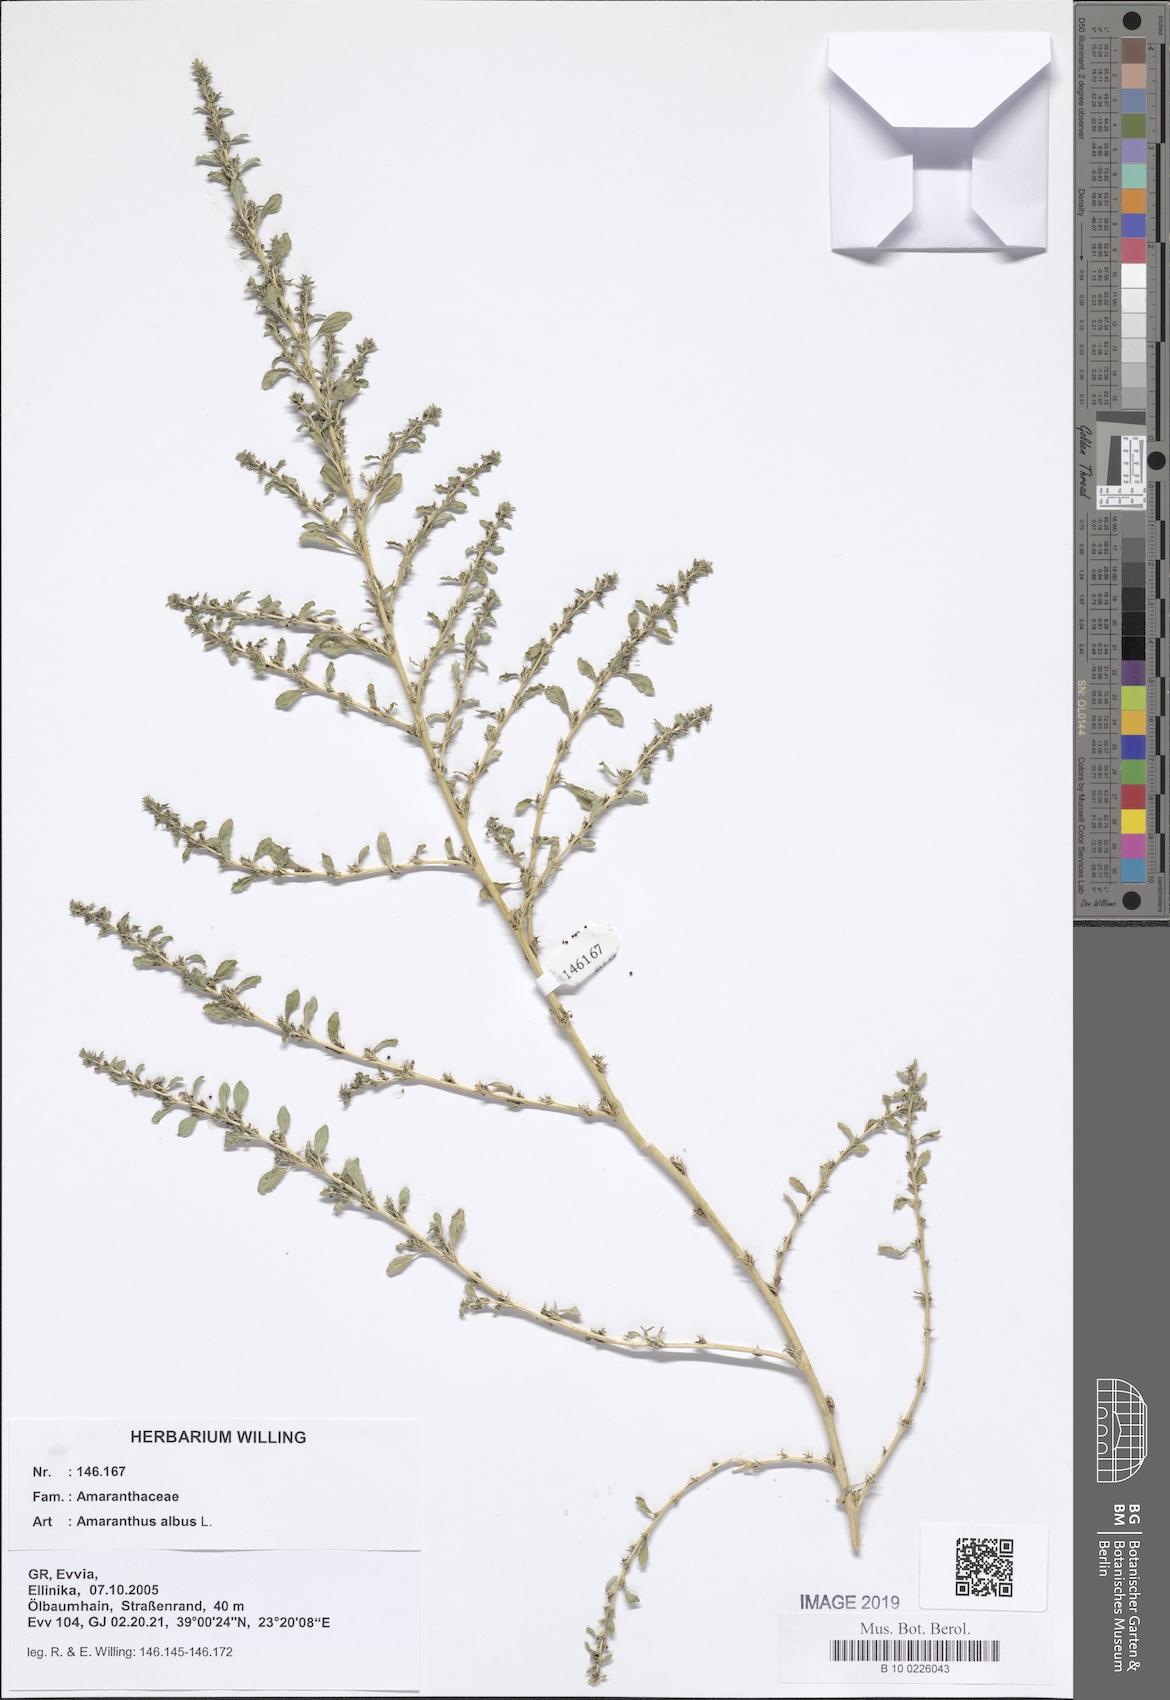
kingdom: Plantae
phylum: Tracheophyta
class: Magnoliopsida
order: Caryophyllales
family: Amaranthaceae
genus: Amaranthus
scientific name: Amaranthus albus
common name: White pigweed
